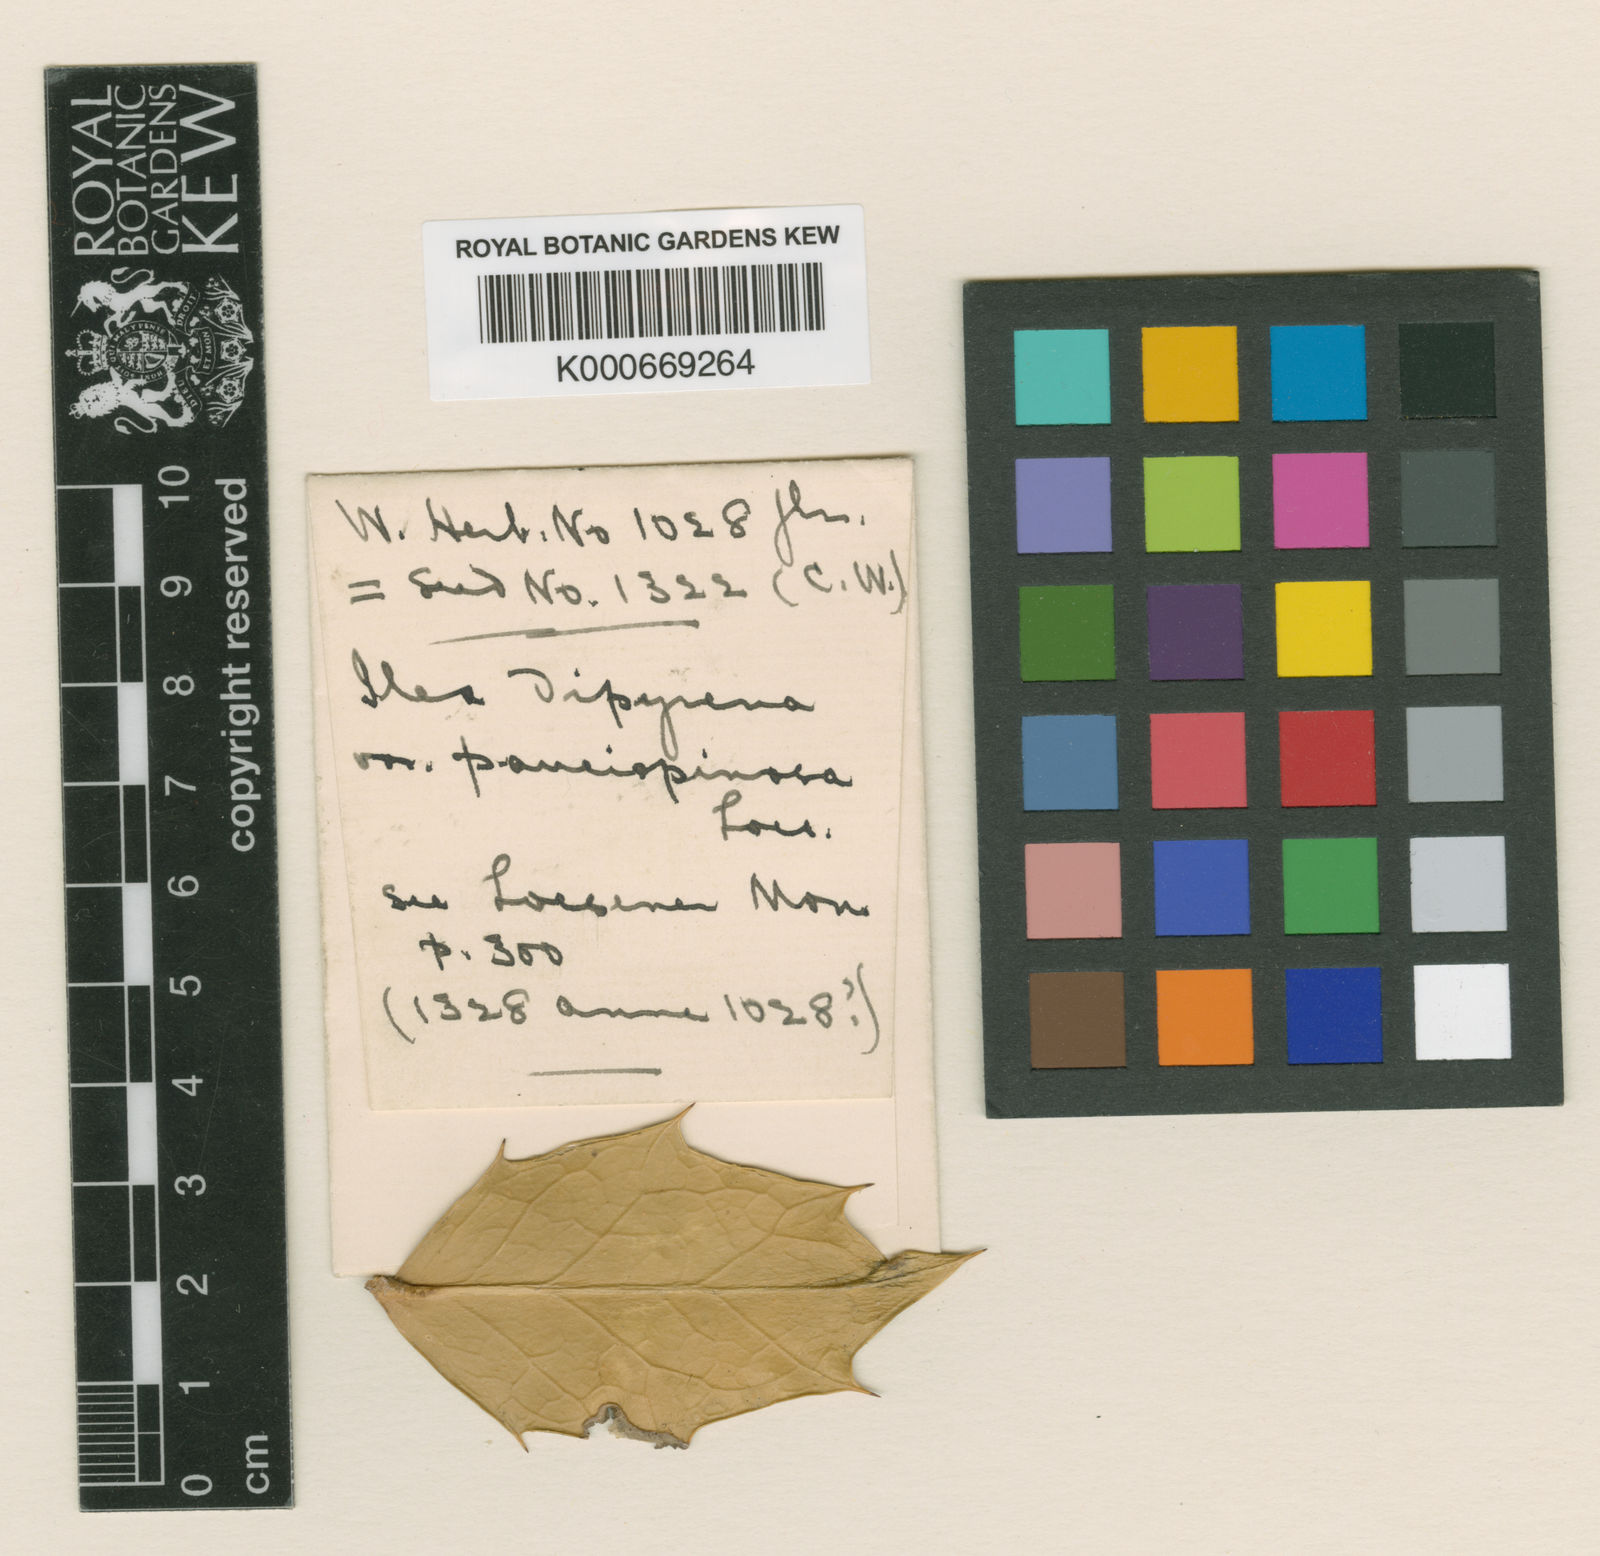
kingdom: Plantae
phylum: Tracheophyta
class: Magnoliopsida
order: Aquifoliales
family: Aquifoliaceae
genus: Ilex
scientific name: Ilex dipyrena
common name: Himalayan holly
